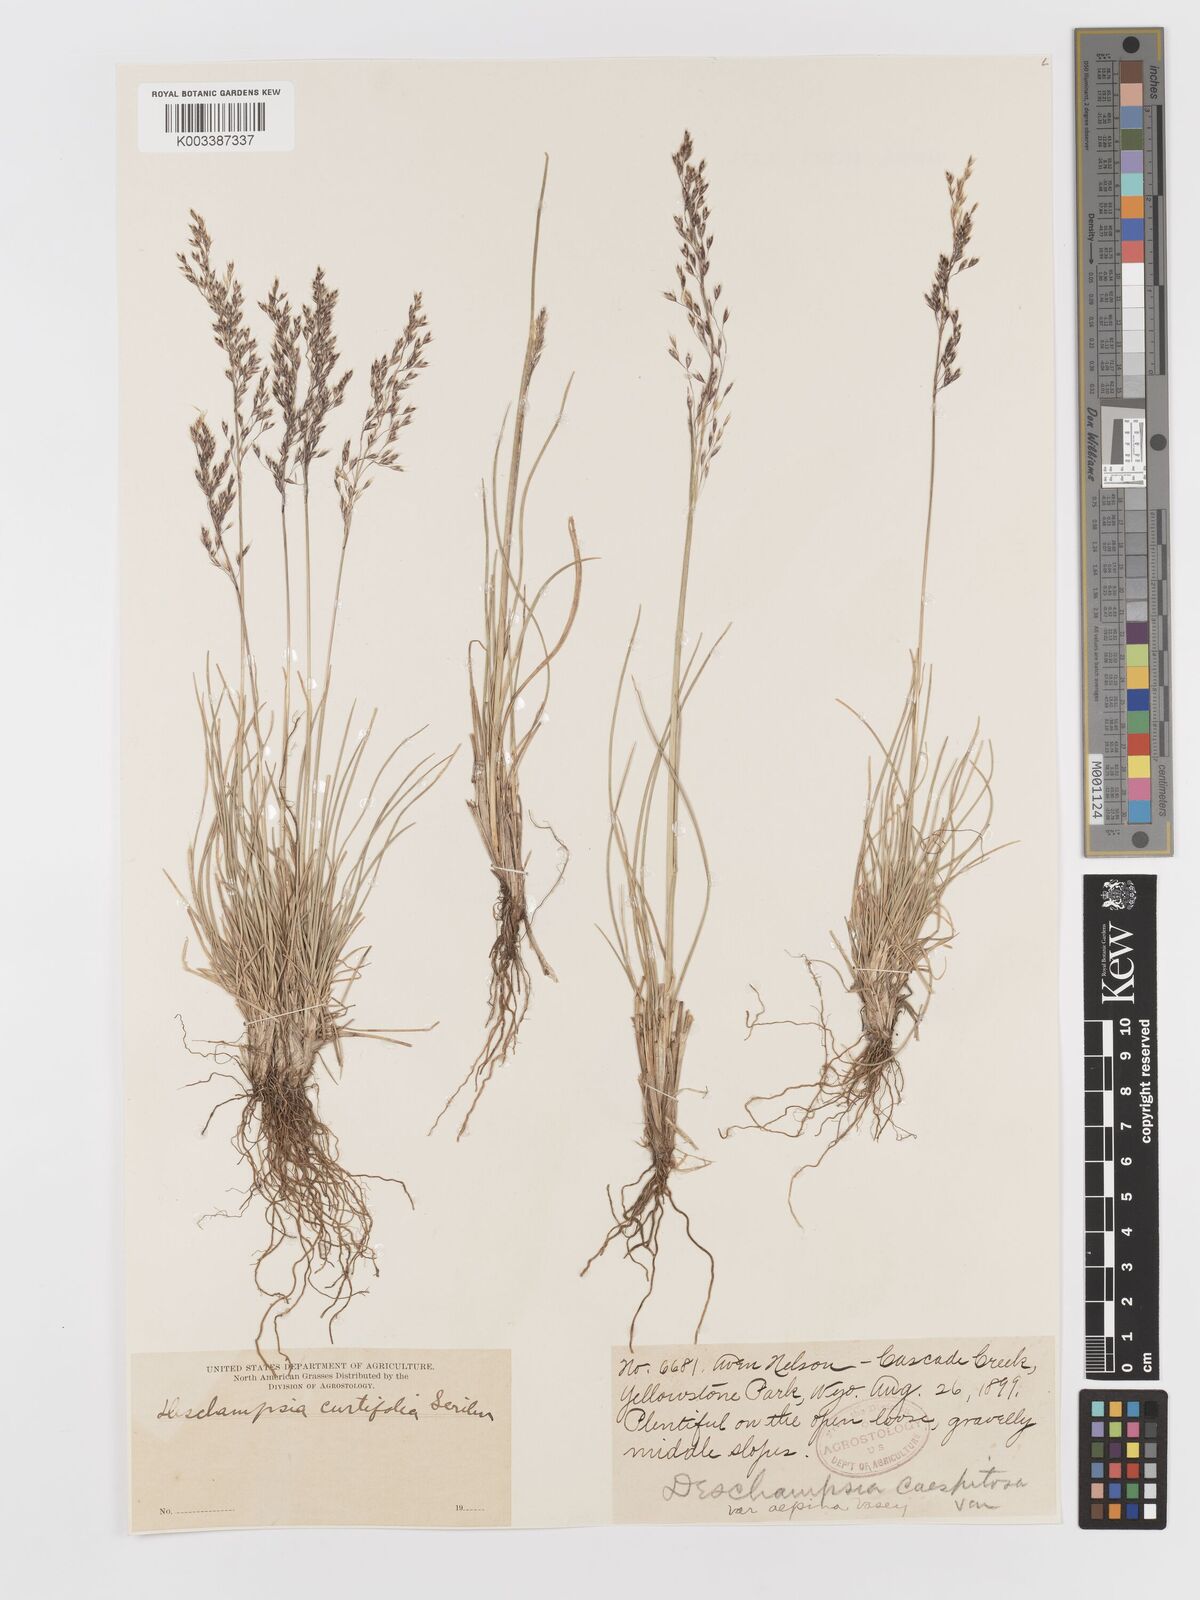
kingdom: Plantae
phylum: Tracheophyta
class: Liliopsida
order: Poales
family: Poaceae
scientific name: Poaceae
